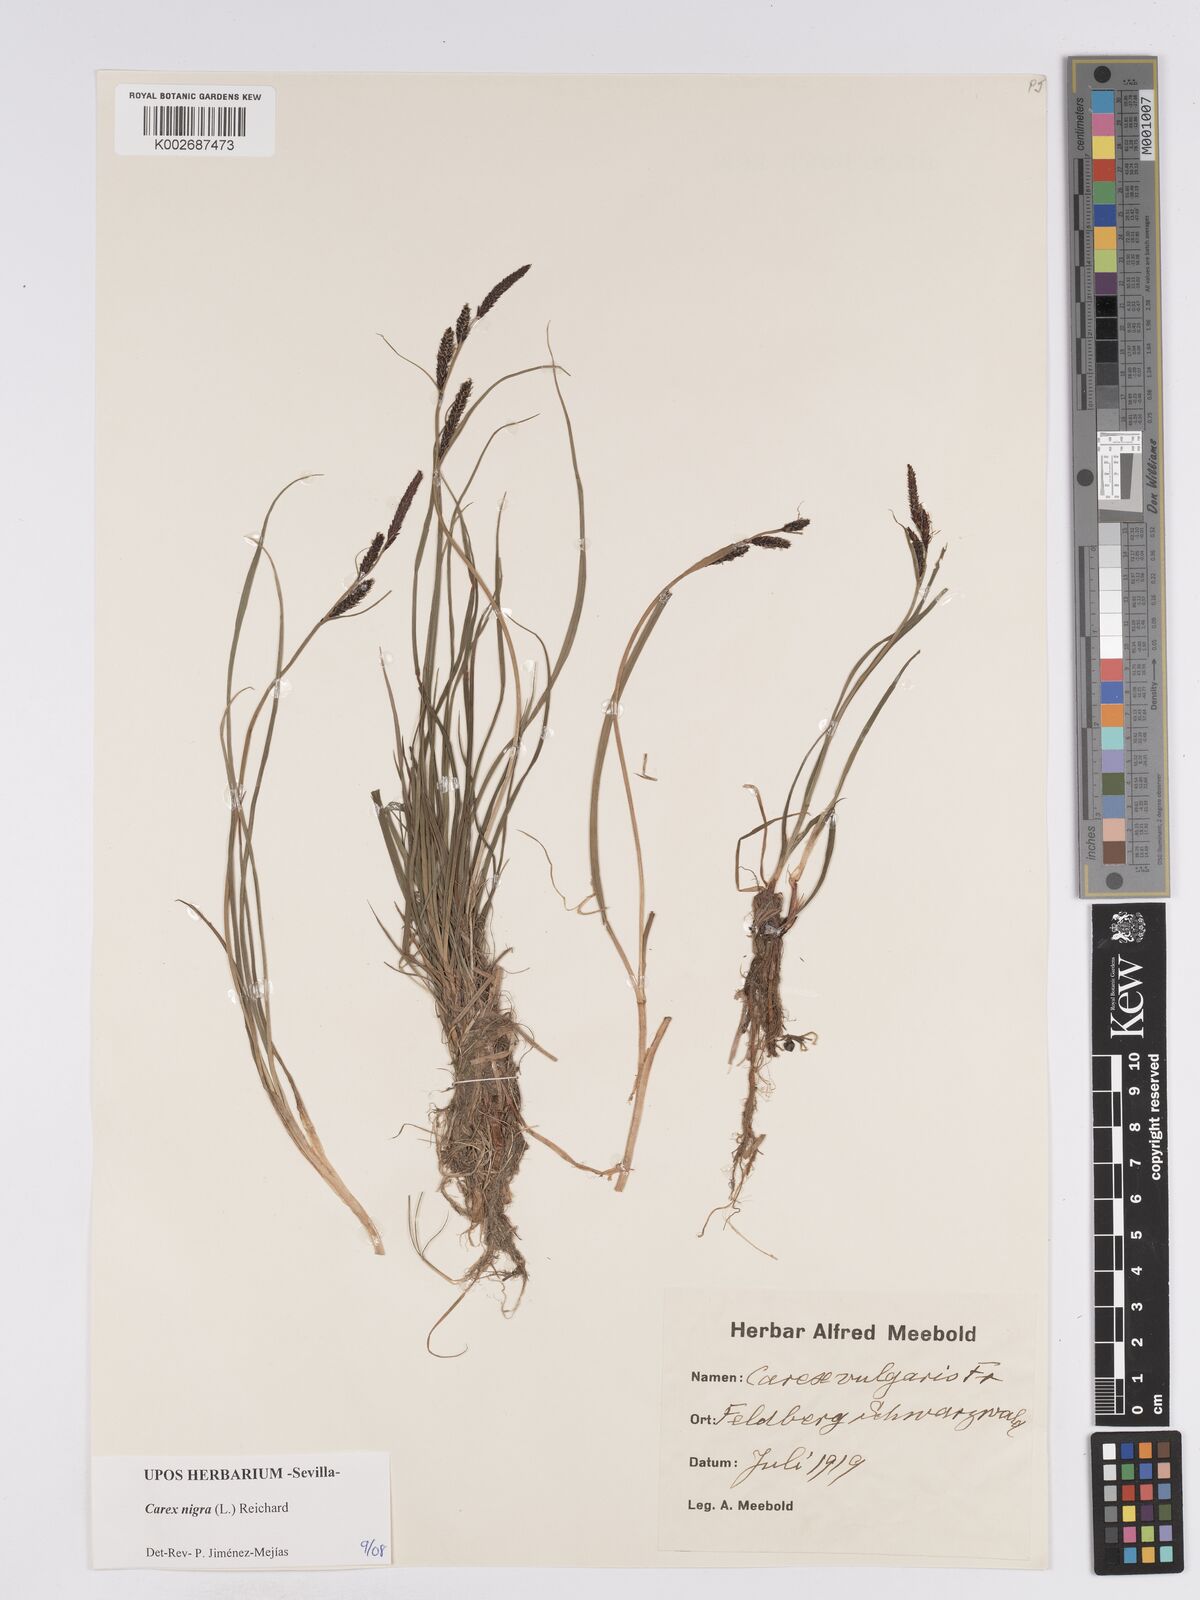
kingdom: Plantae
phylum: Tracheophyta
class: Liliopsida
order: Poales
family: Cyperaceae
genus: Carex
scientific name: Carex nigra
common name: Common sedge
